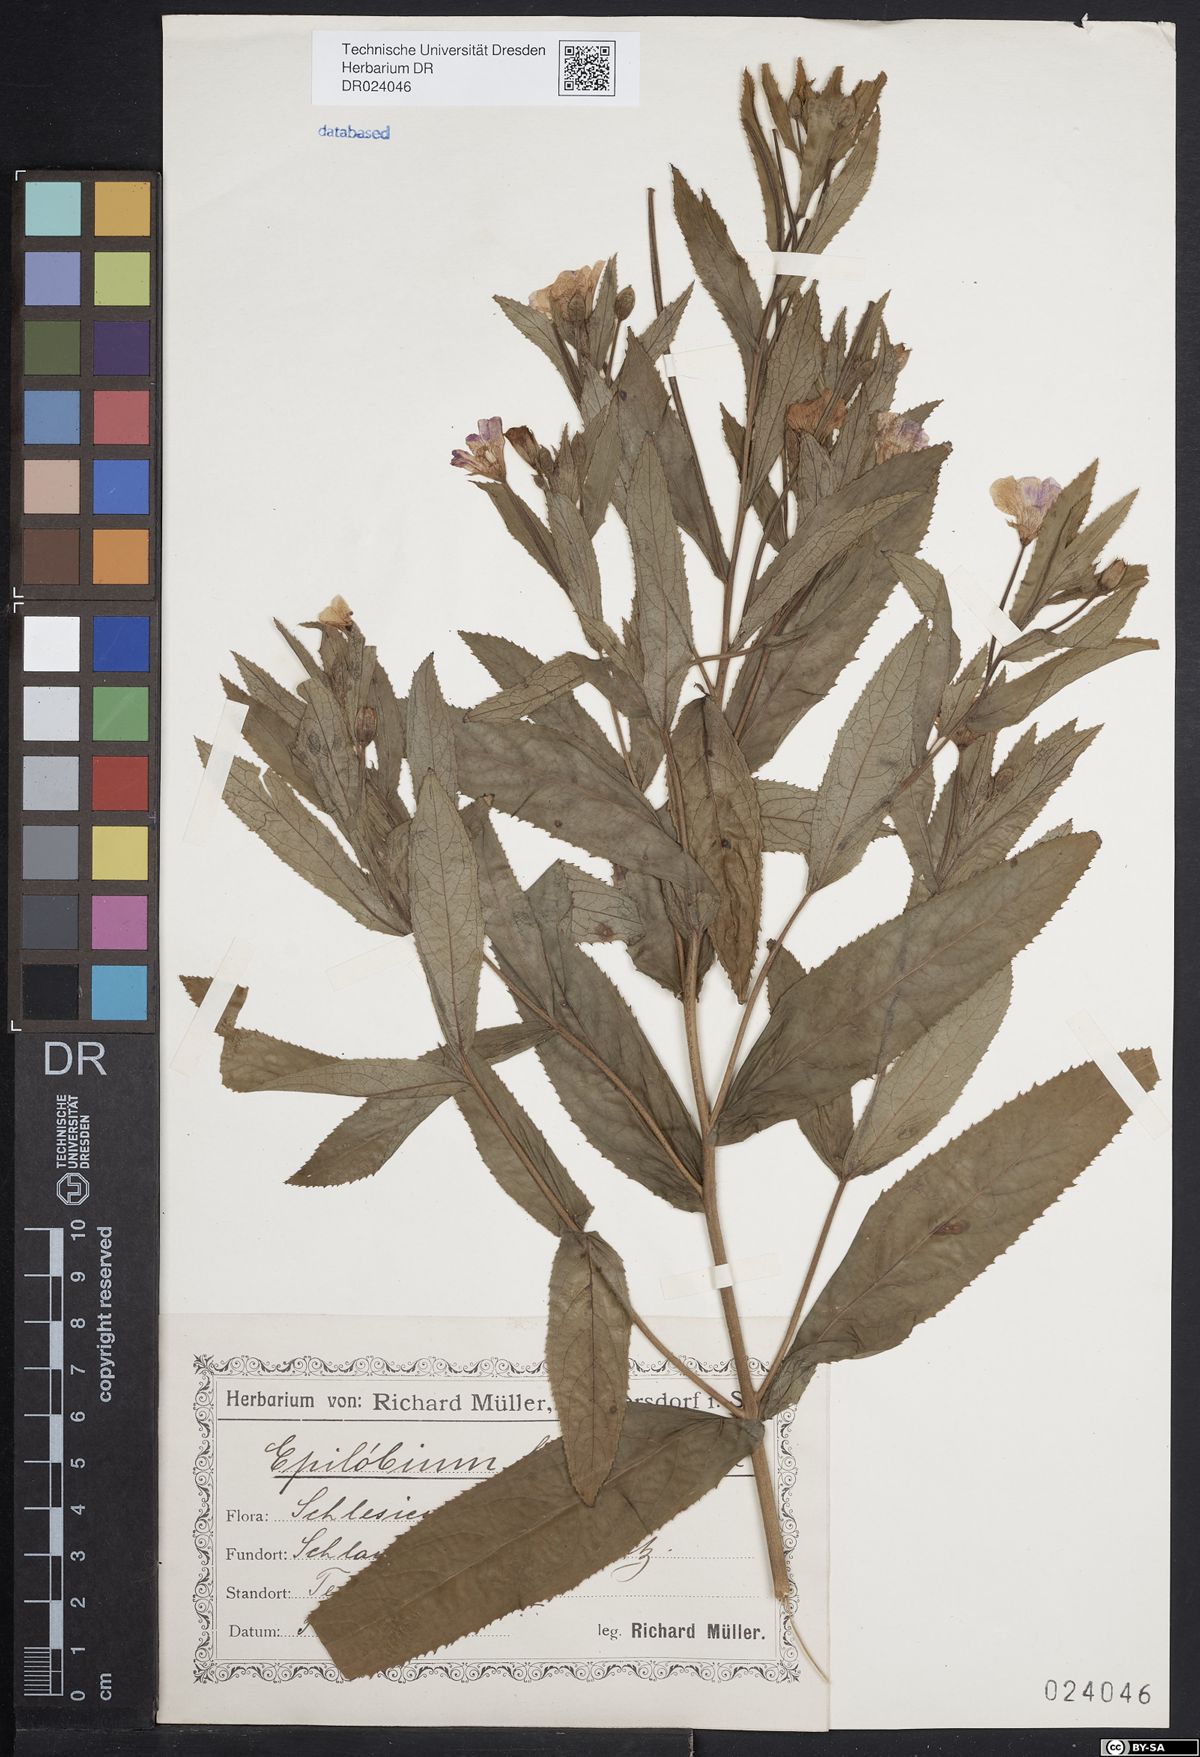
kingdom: Plantae
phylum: Tracheophyta
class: Magnoliopsida
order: Myrtales
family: Onagraceae
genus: Epilobium
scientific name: Epilobium hirsutum
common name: Great willowherb
